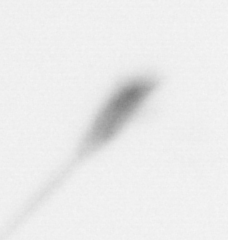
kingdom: Animalia
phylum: Arthropoda
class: Copepoda
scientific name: Copepoda
